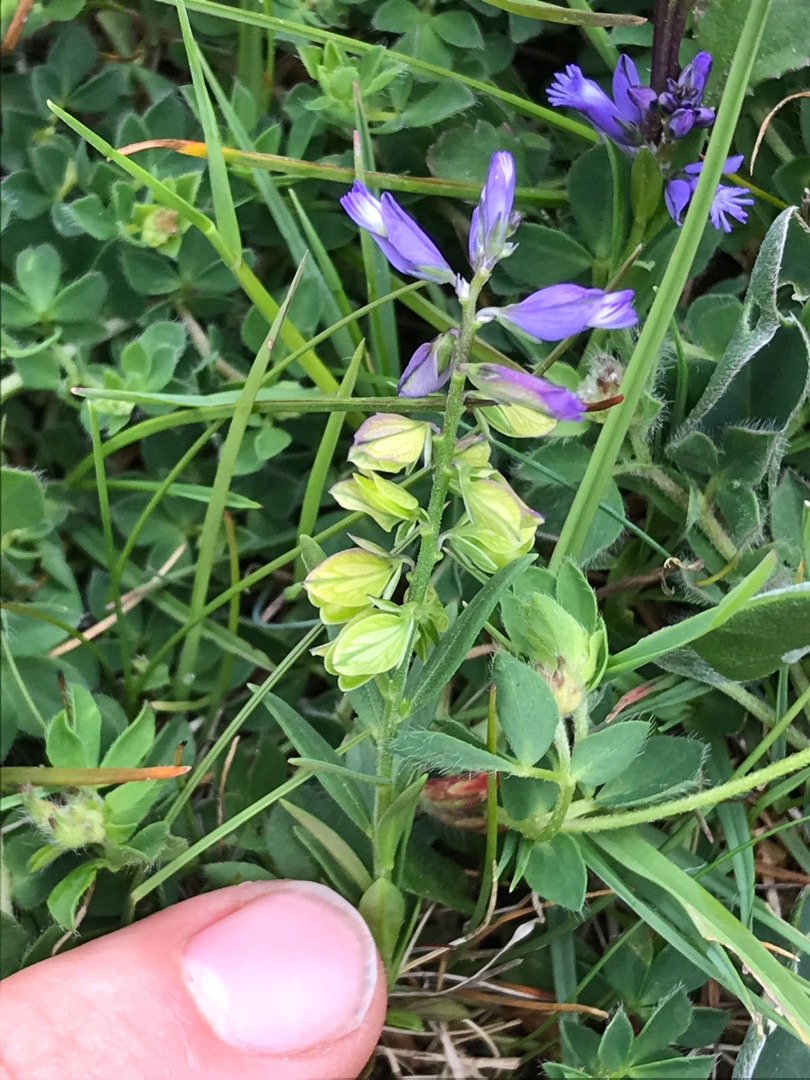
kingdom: Plantae
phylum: Tracheophyta
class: Magnoliopsida
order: Fabales
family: Polygalaceae
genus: Polygala
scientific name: Polygala vulgaris
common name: Almindelig mælkeurt
